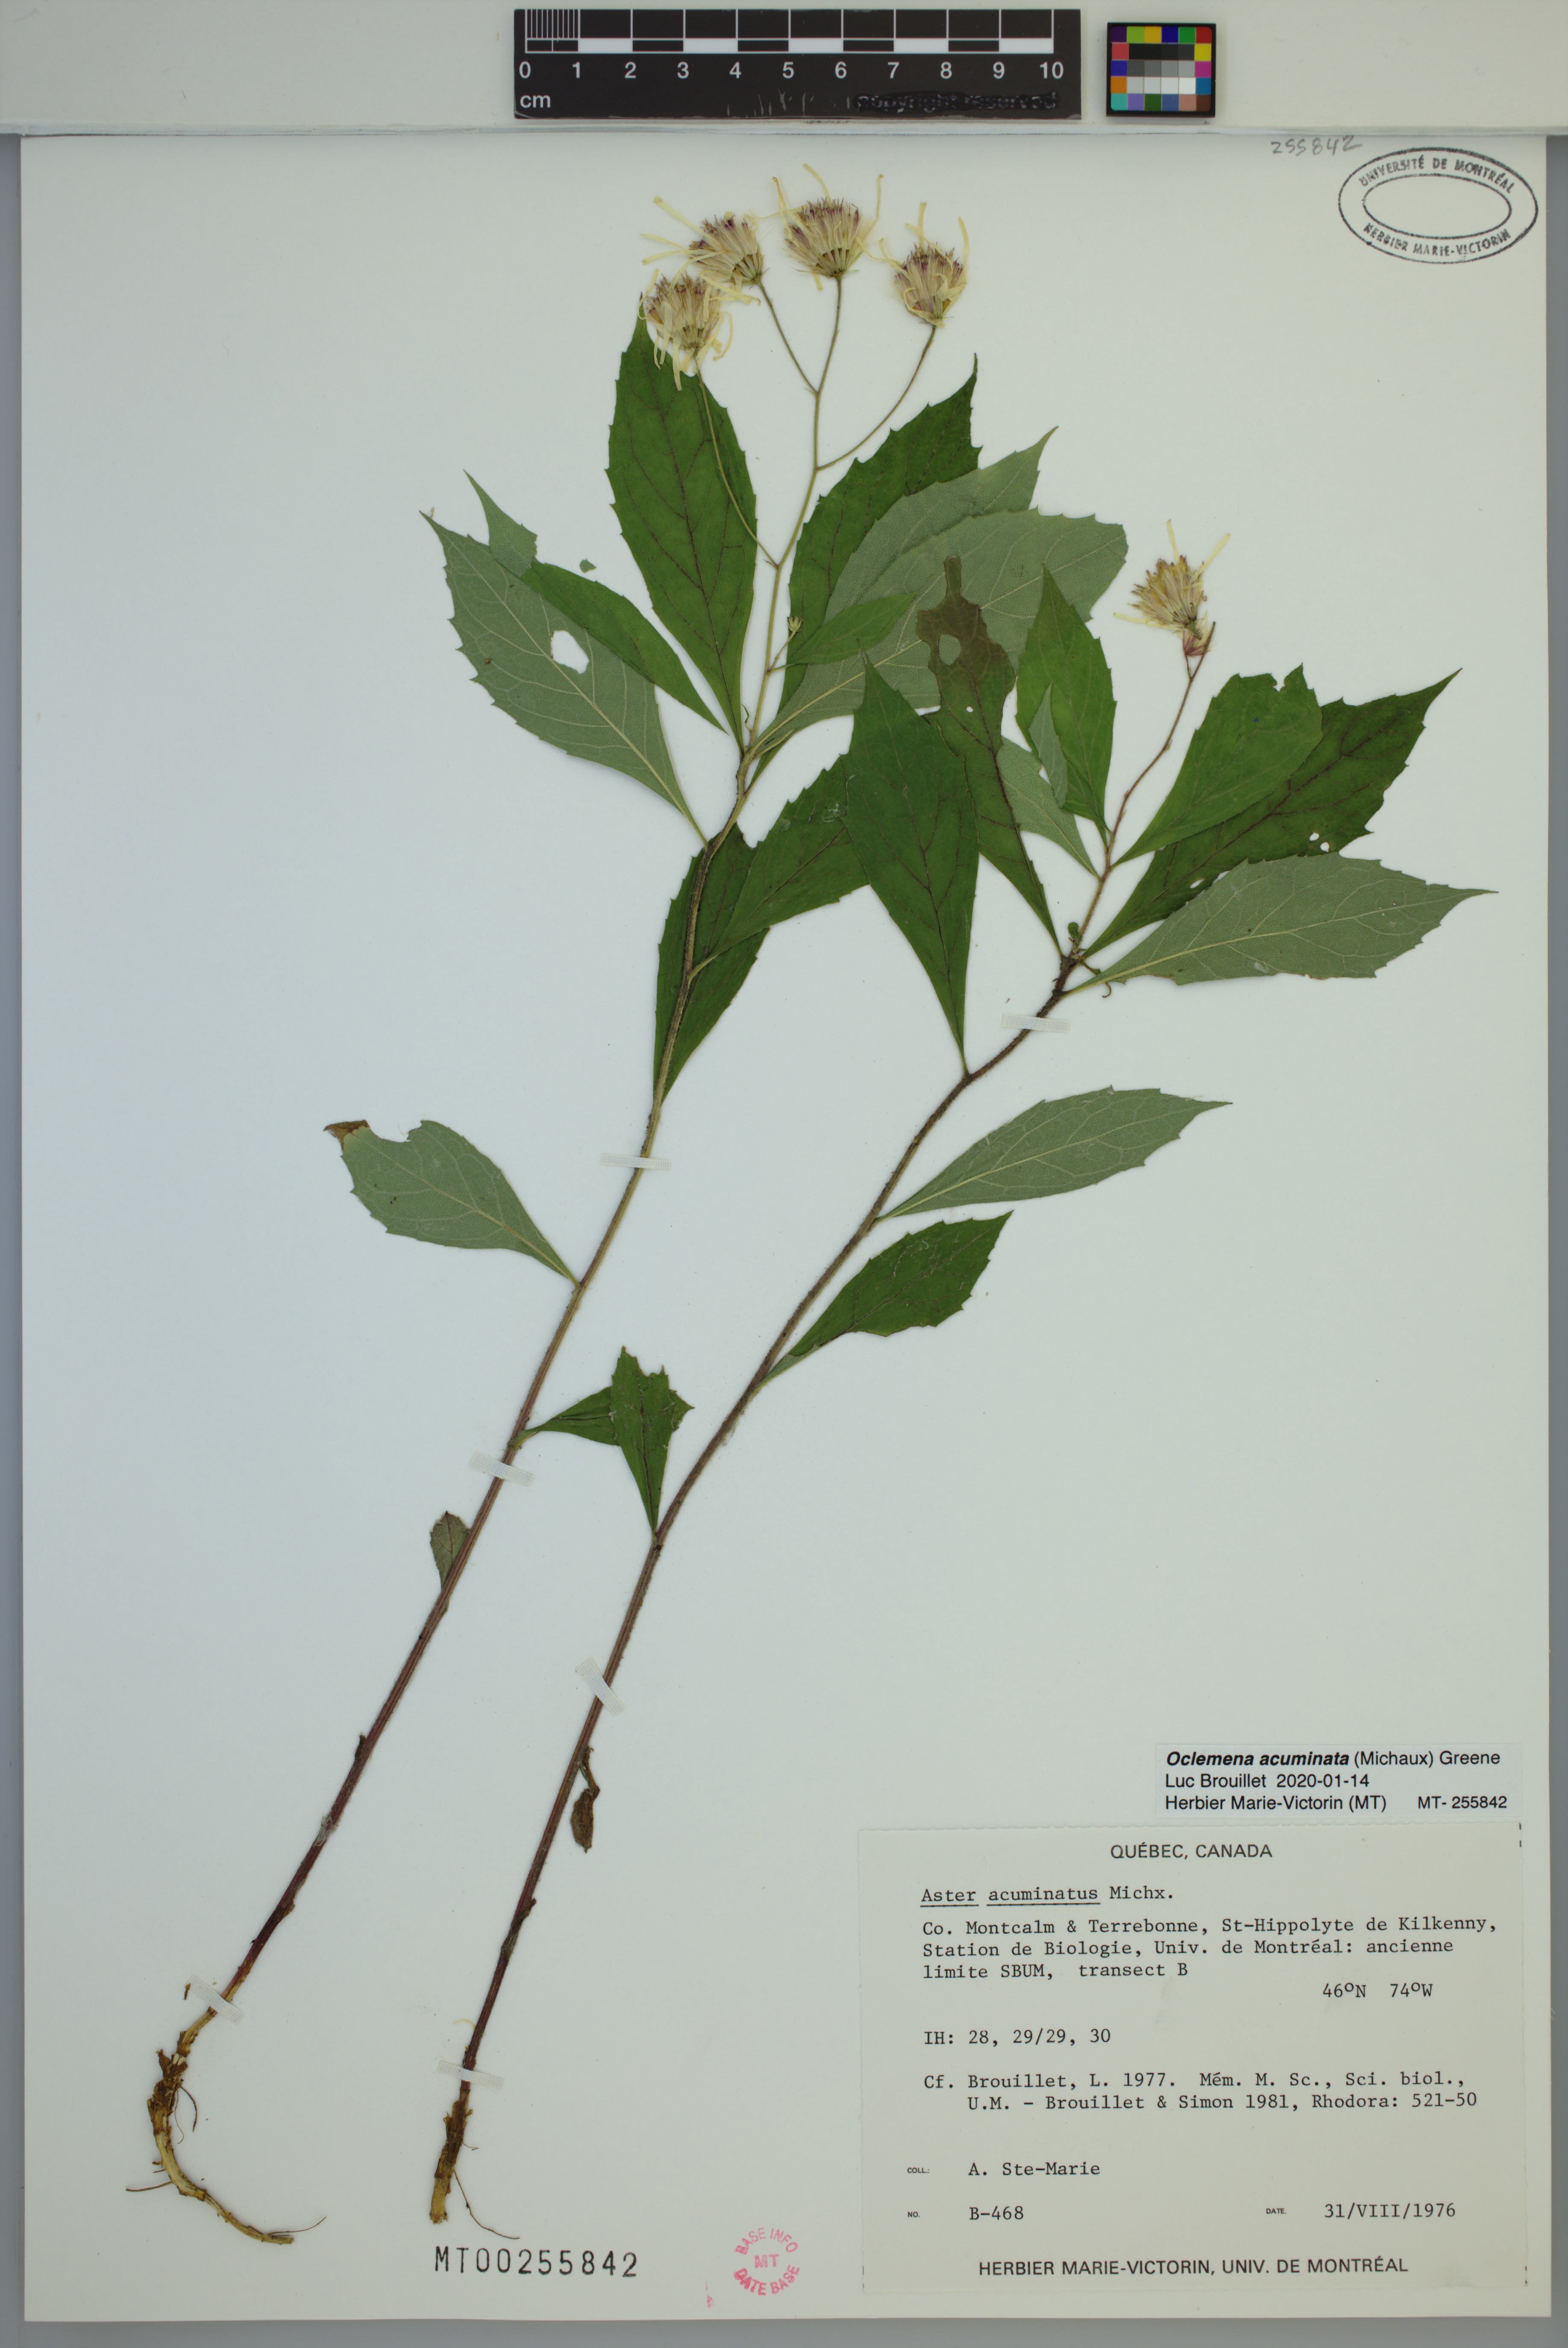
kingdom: Plantae
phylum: Tracheophyta
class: Magnoliopsida
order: Asterales
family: Asteraceae
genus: Oclemena
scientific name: Oclemena acuminata
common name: Mountain aster
